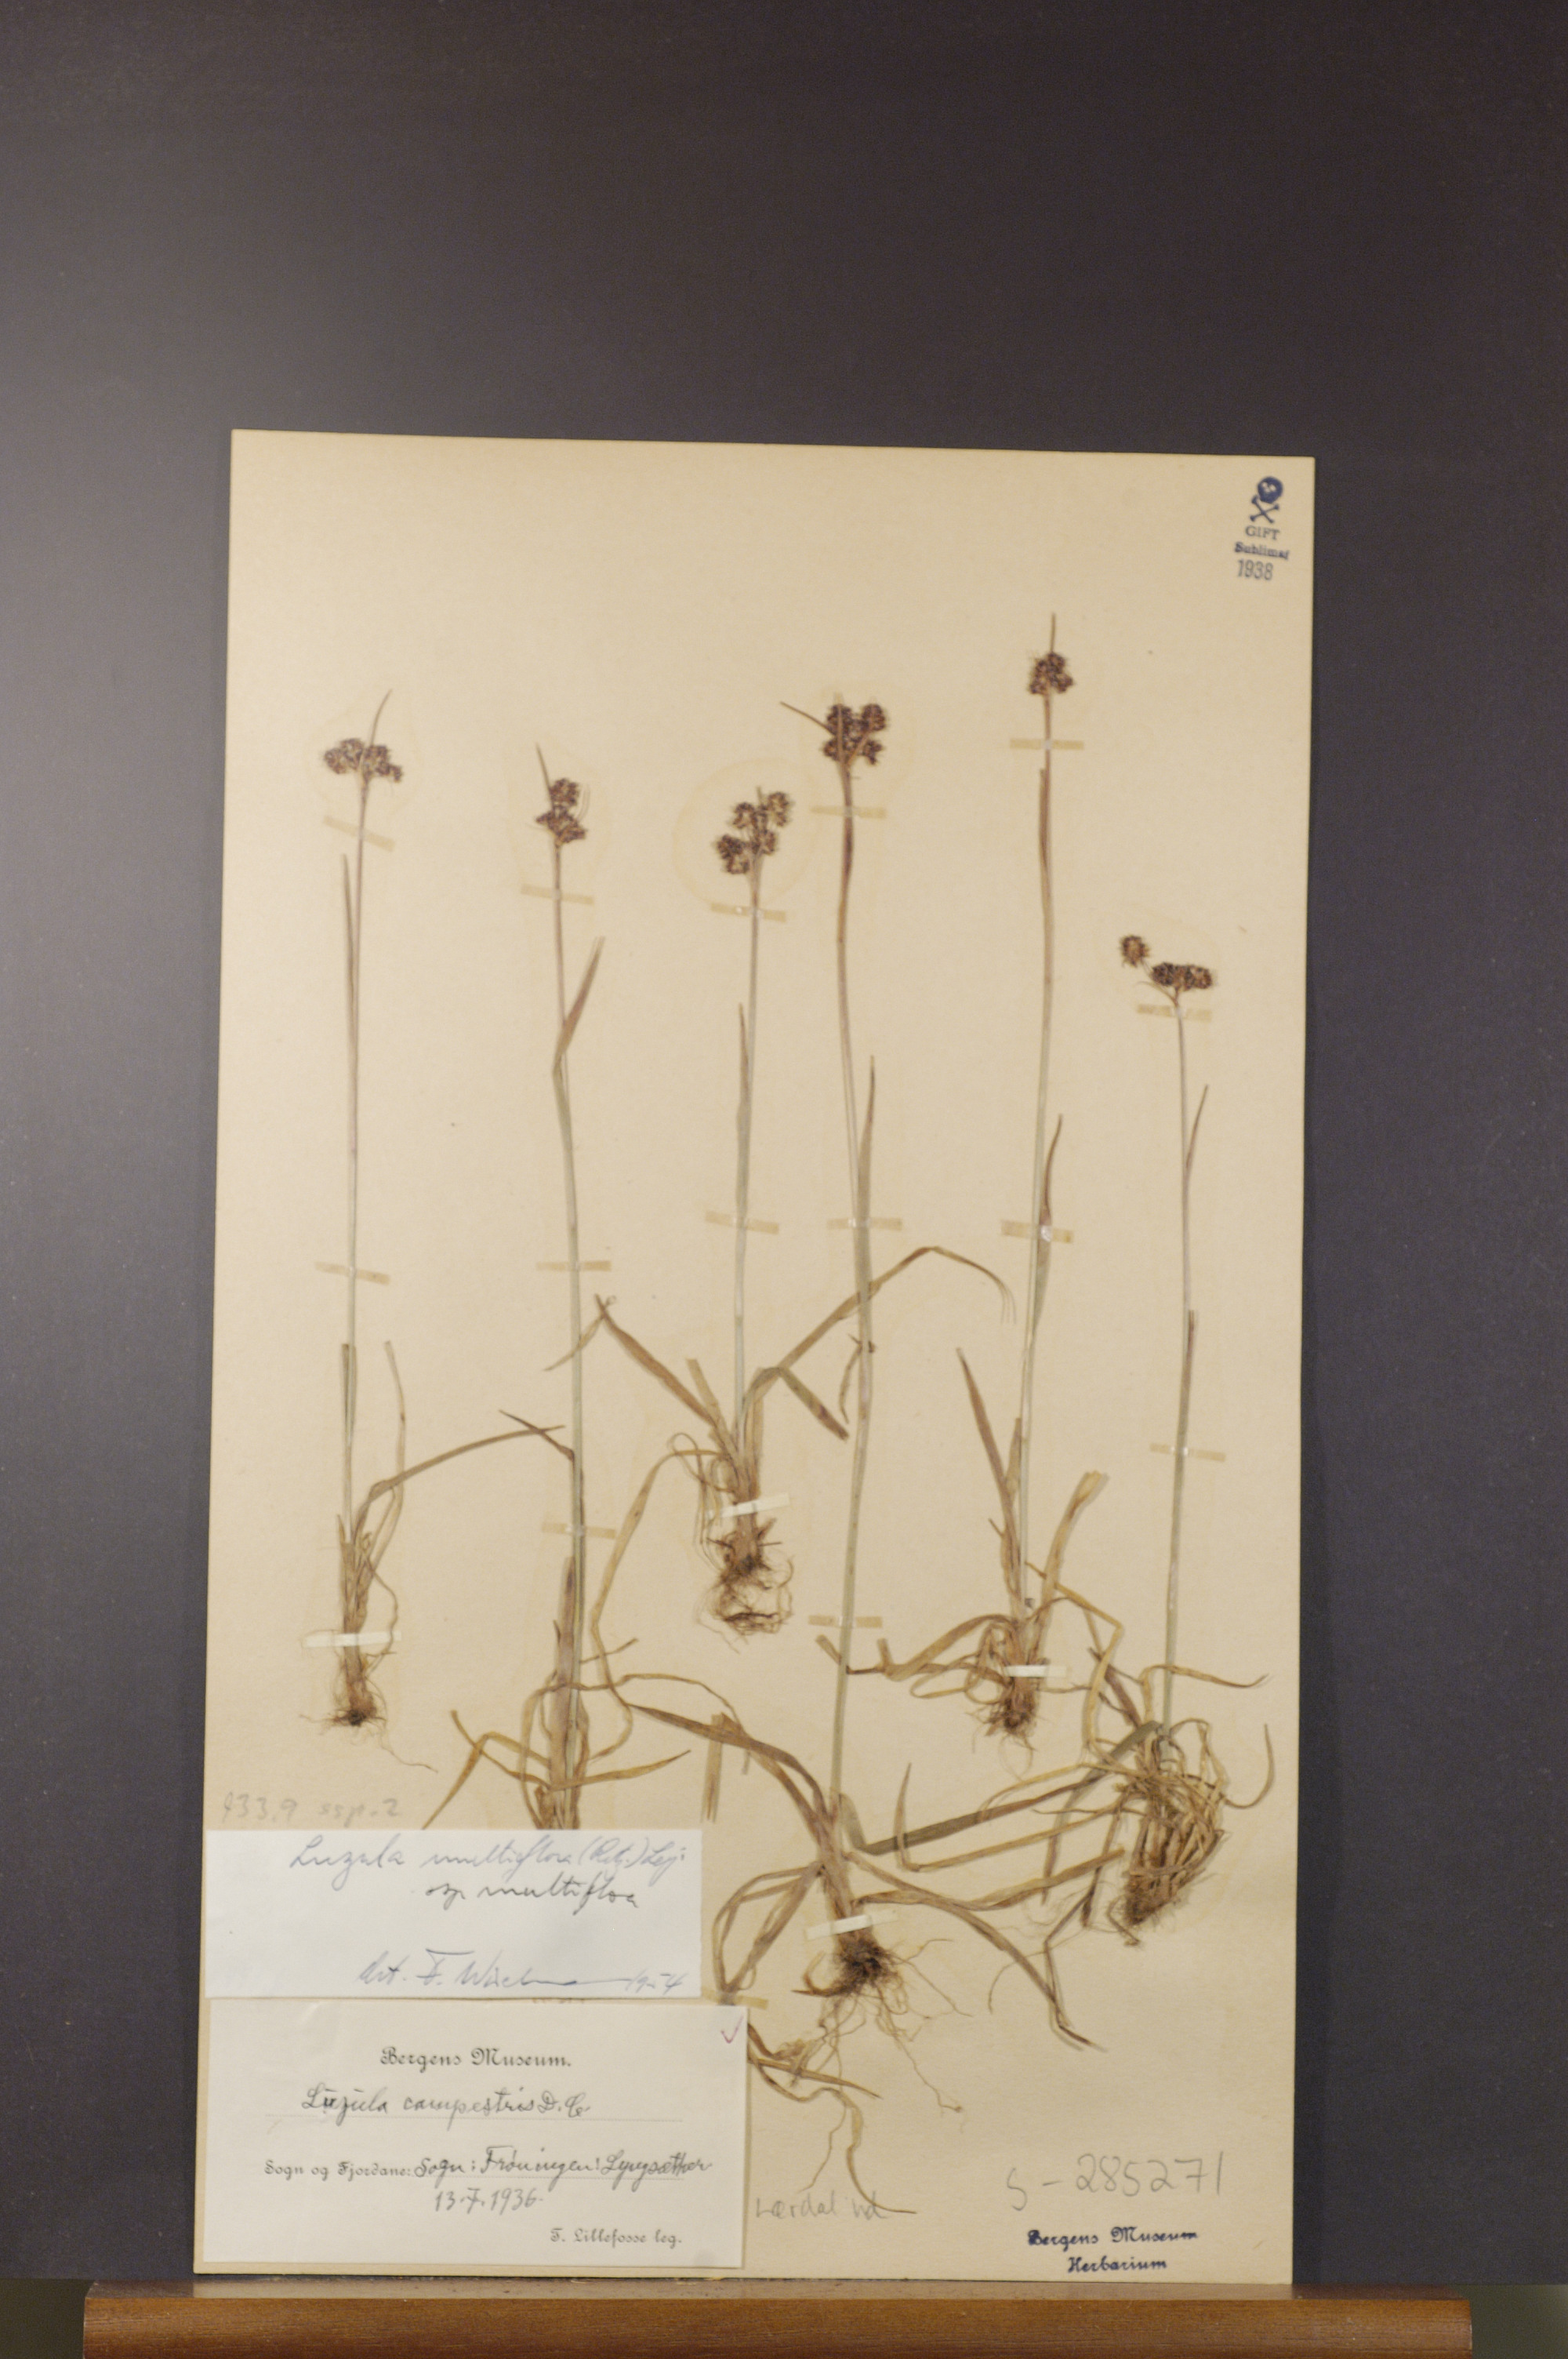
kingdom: Plantae
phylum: Tracheophyta
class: Liliopsida
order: Poales
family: Juncaceae
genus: Luzula
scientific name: Luzula multiflora
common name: Heath wood-rush
